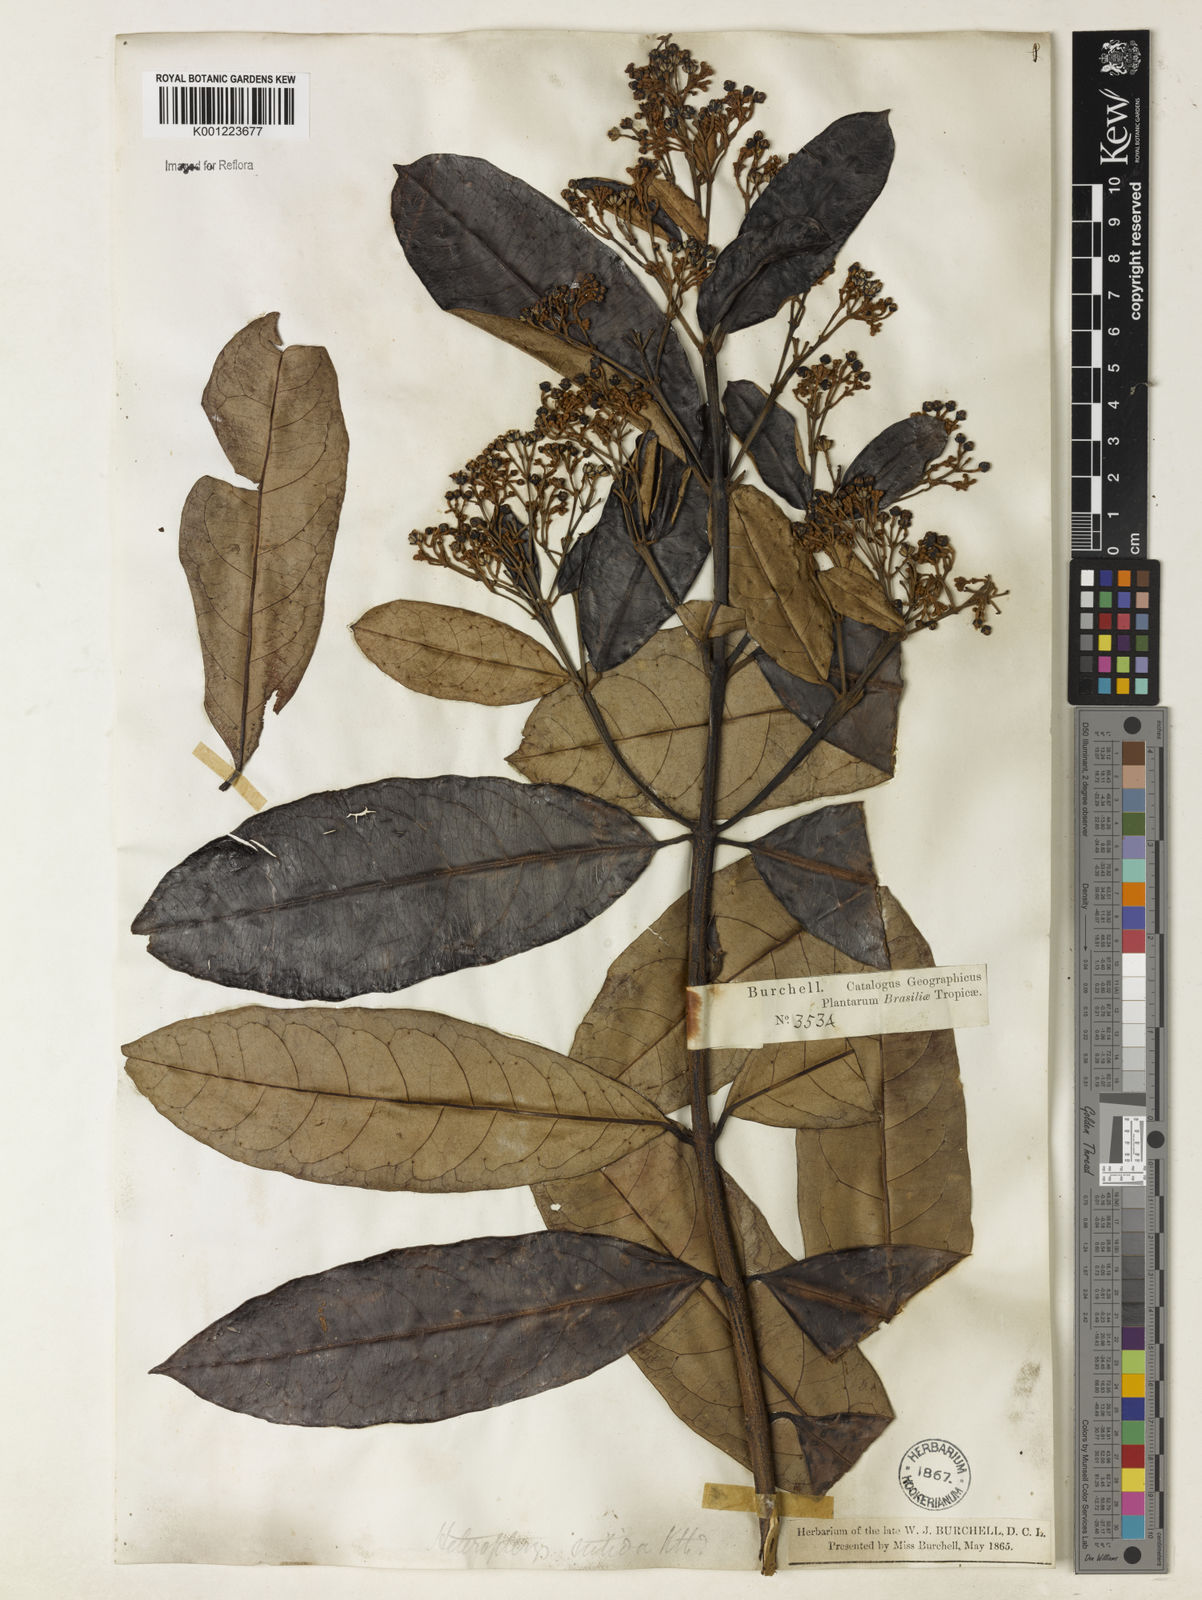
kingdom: Plantae
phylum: Tracheophyta
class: Magnoliopsida
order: Malpighiales
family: Malpighiaceae
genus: Heteropterys
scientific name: Heteropterys nitida
